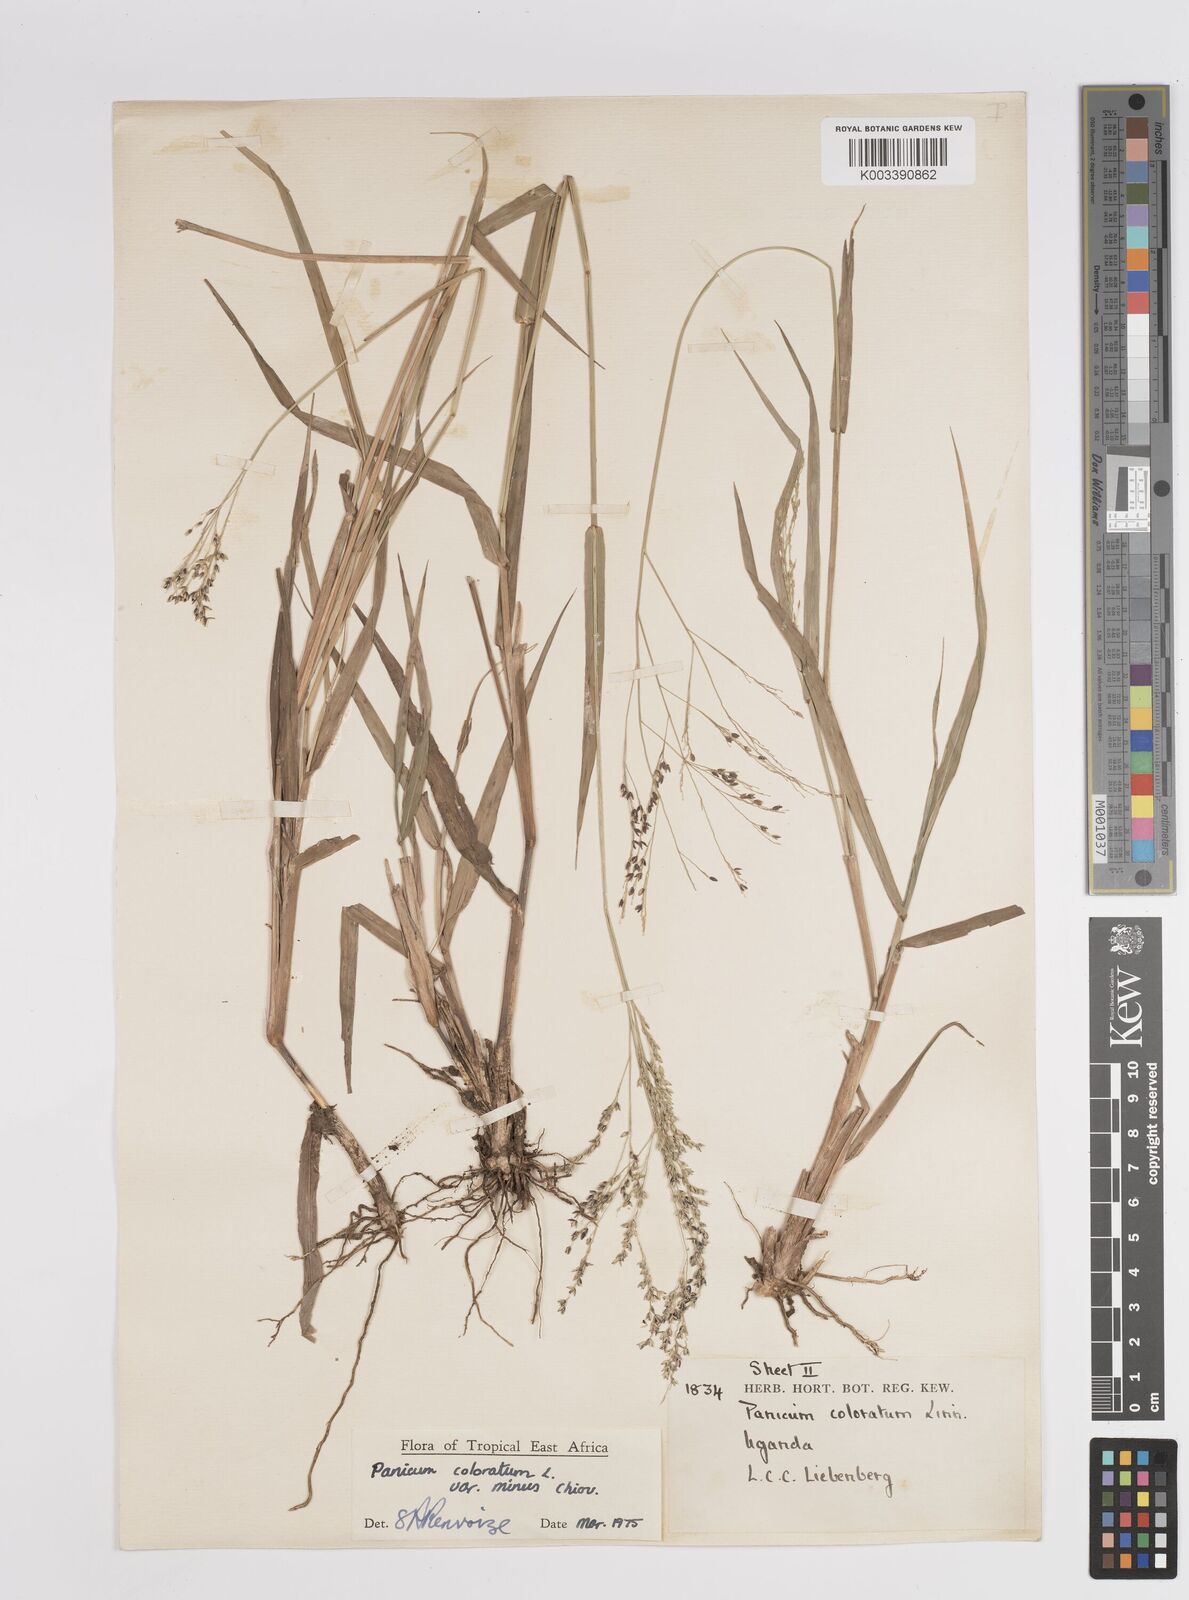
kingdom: Plantae
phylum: Tracheophyta
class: Liliopsida
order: Poales
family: Poaceae
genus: Panicum
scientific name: Panicum coloratum
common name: Kleingrass
